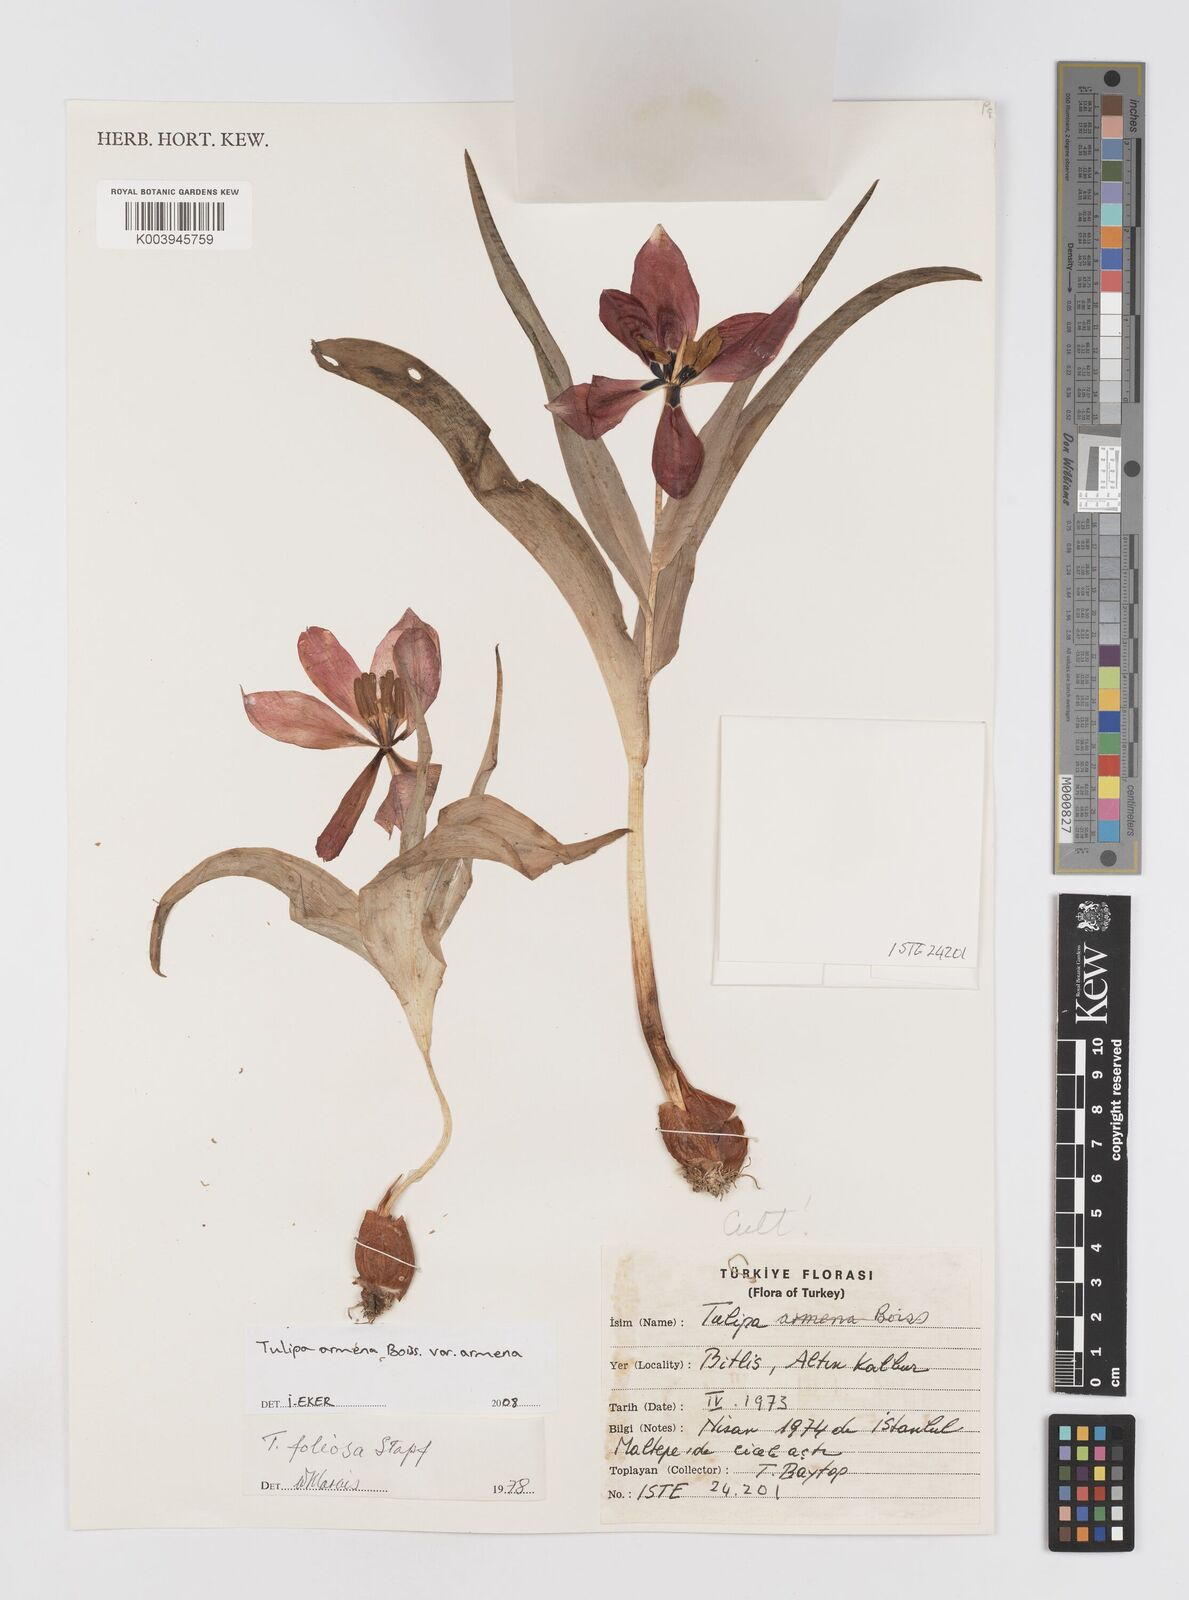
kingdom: Plantae
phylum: Tracheophyta
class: Liliopsida
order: Liliales
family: Liliaceae
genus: Tulipa
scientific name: Tulipa foliosa
